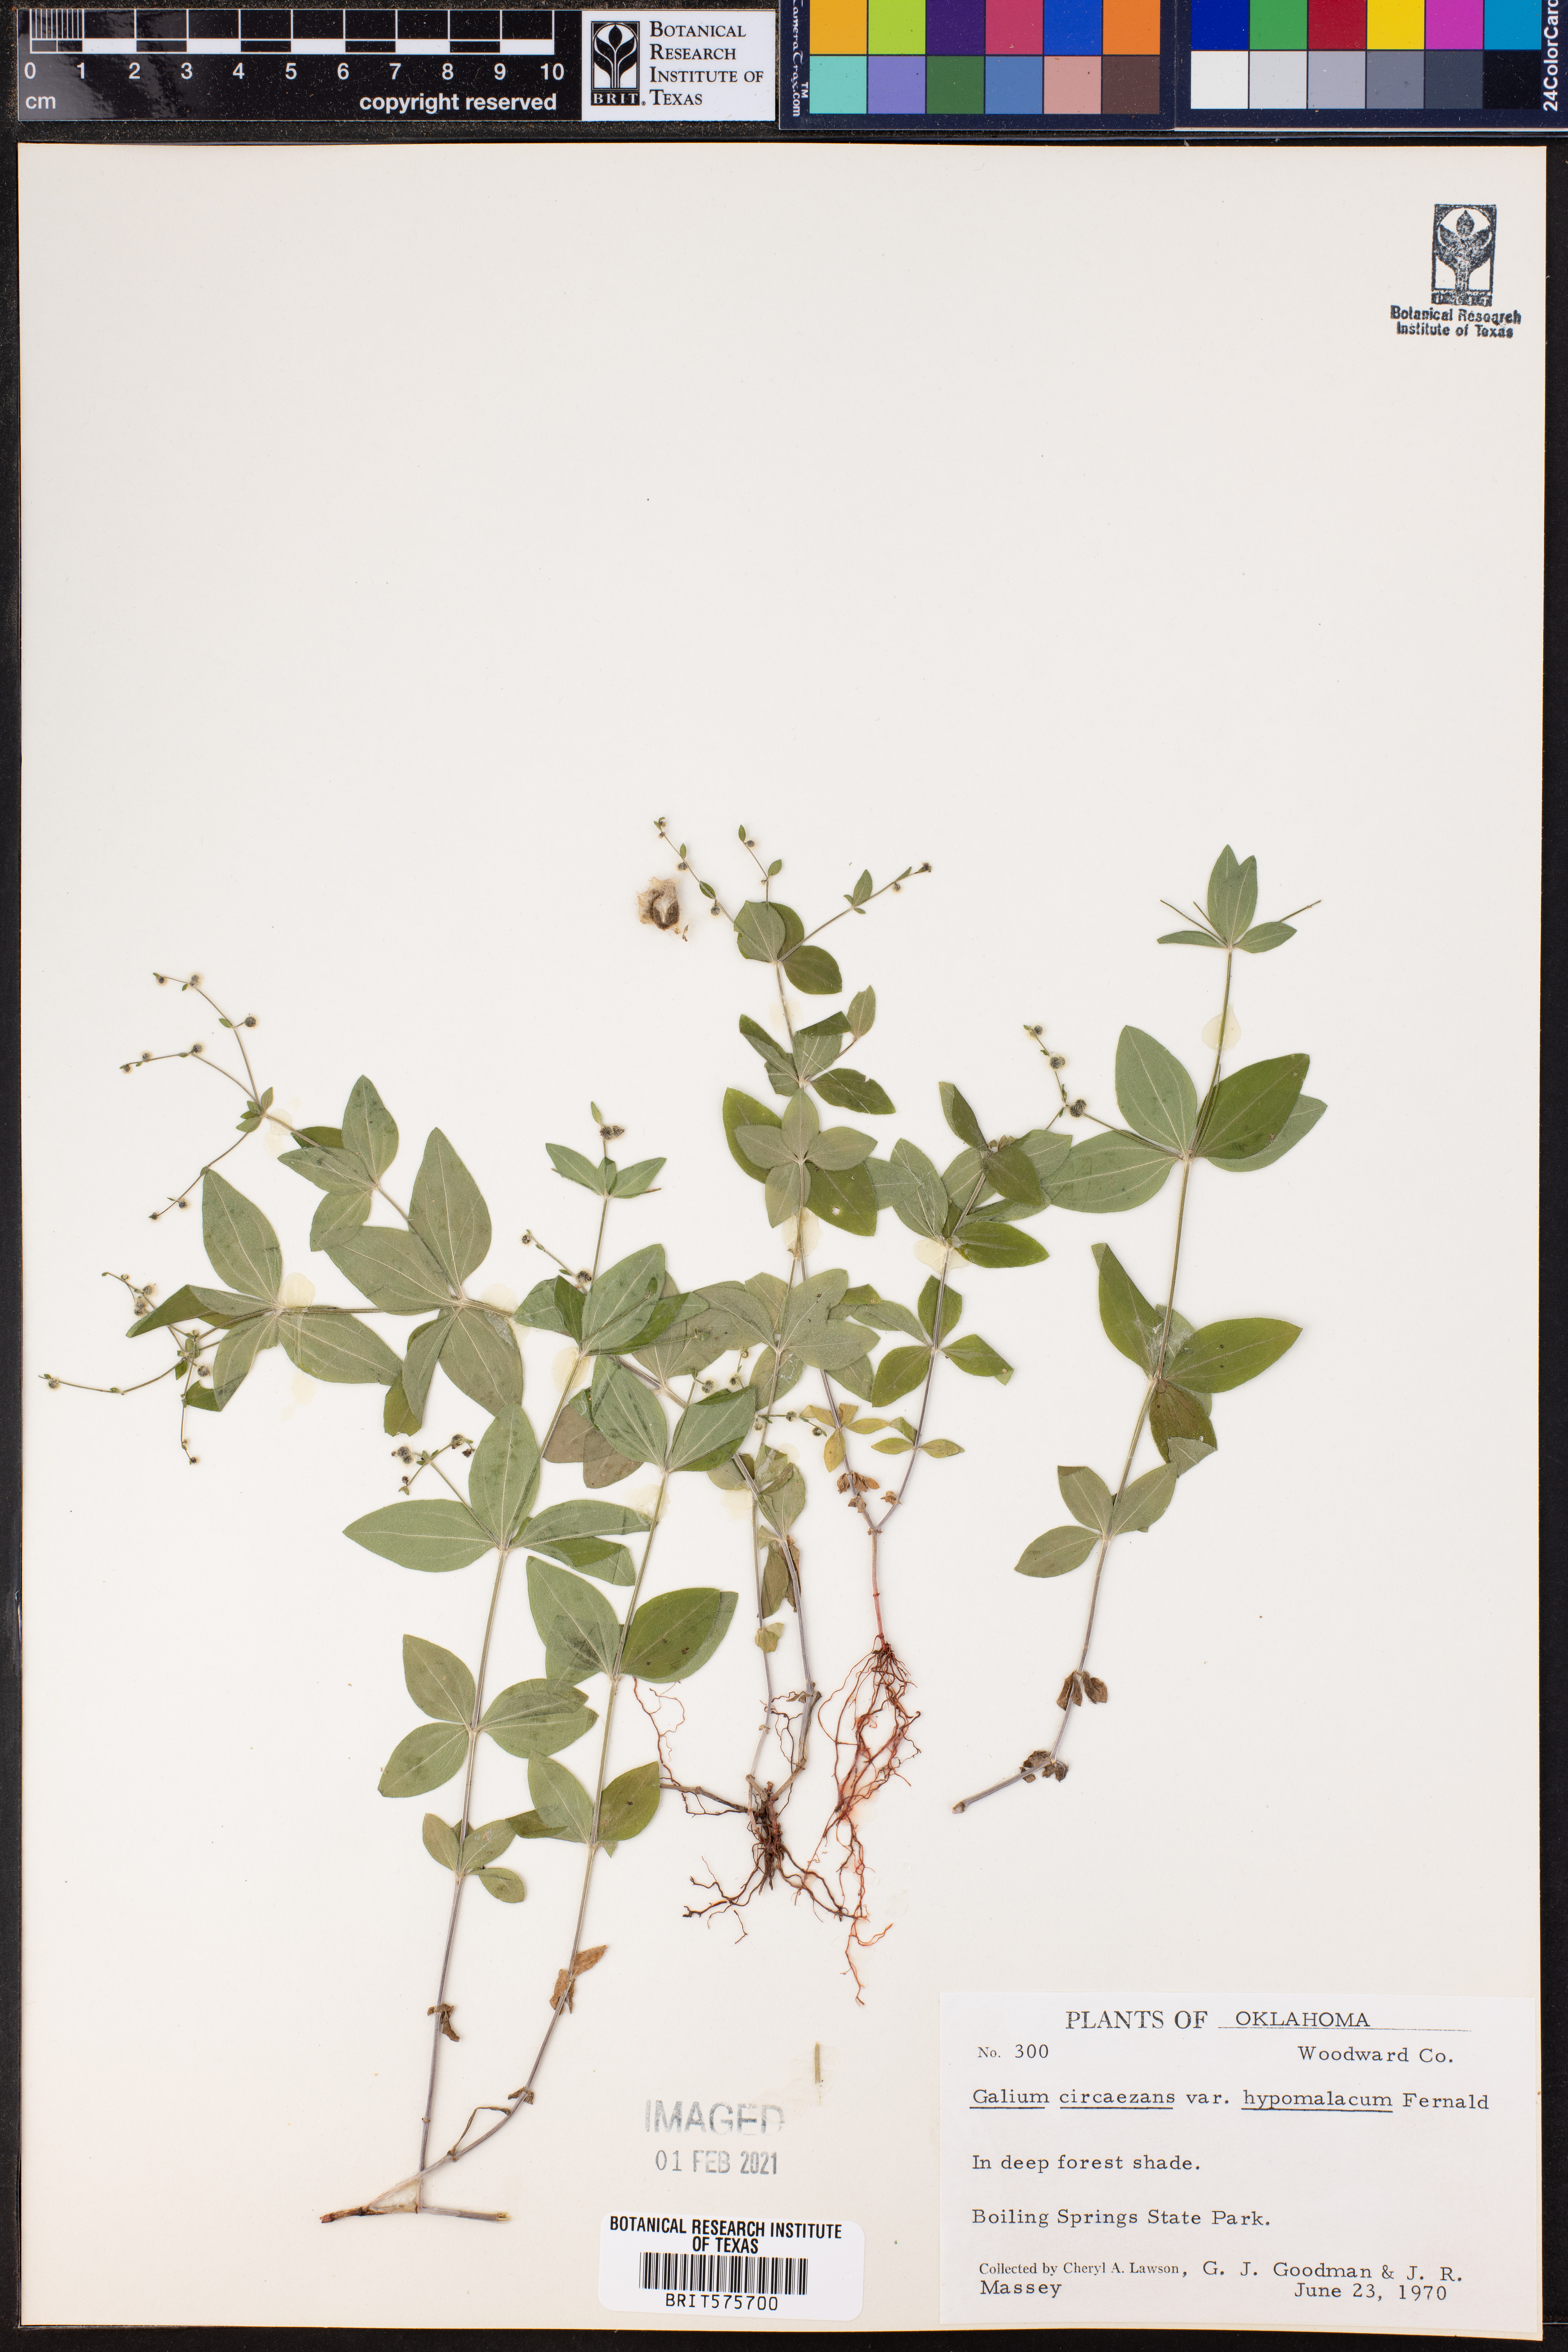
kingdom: Plantae
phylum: Tracheophyta
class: Magnoliopsida
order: Gentianales
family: Rubiaceae
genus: Galium
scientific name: Galium circaezans
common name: Forest bedstraw
